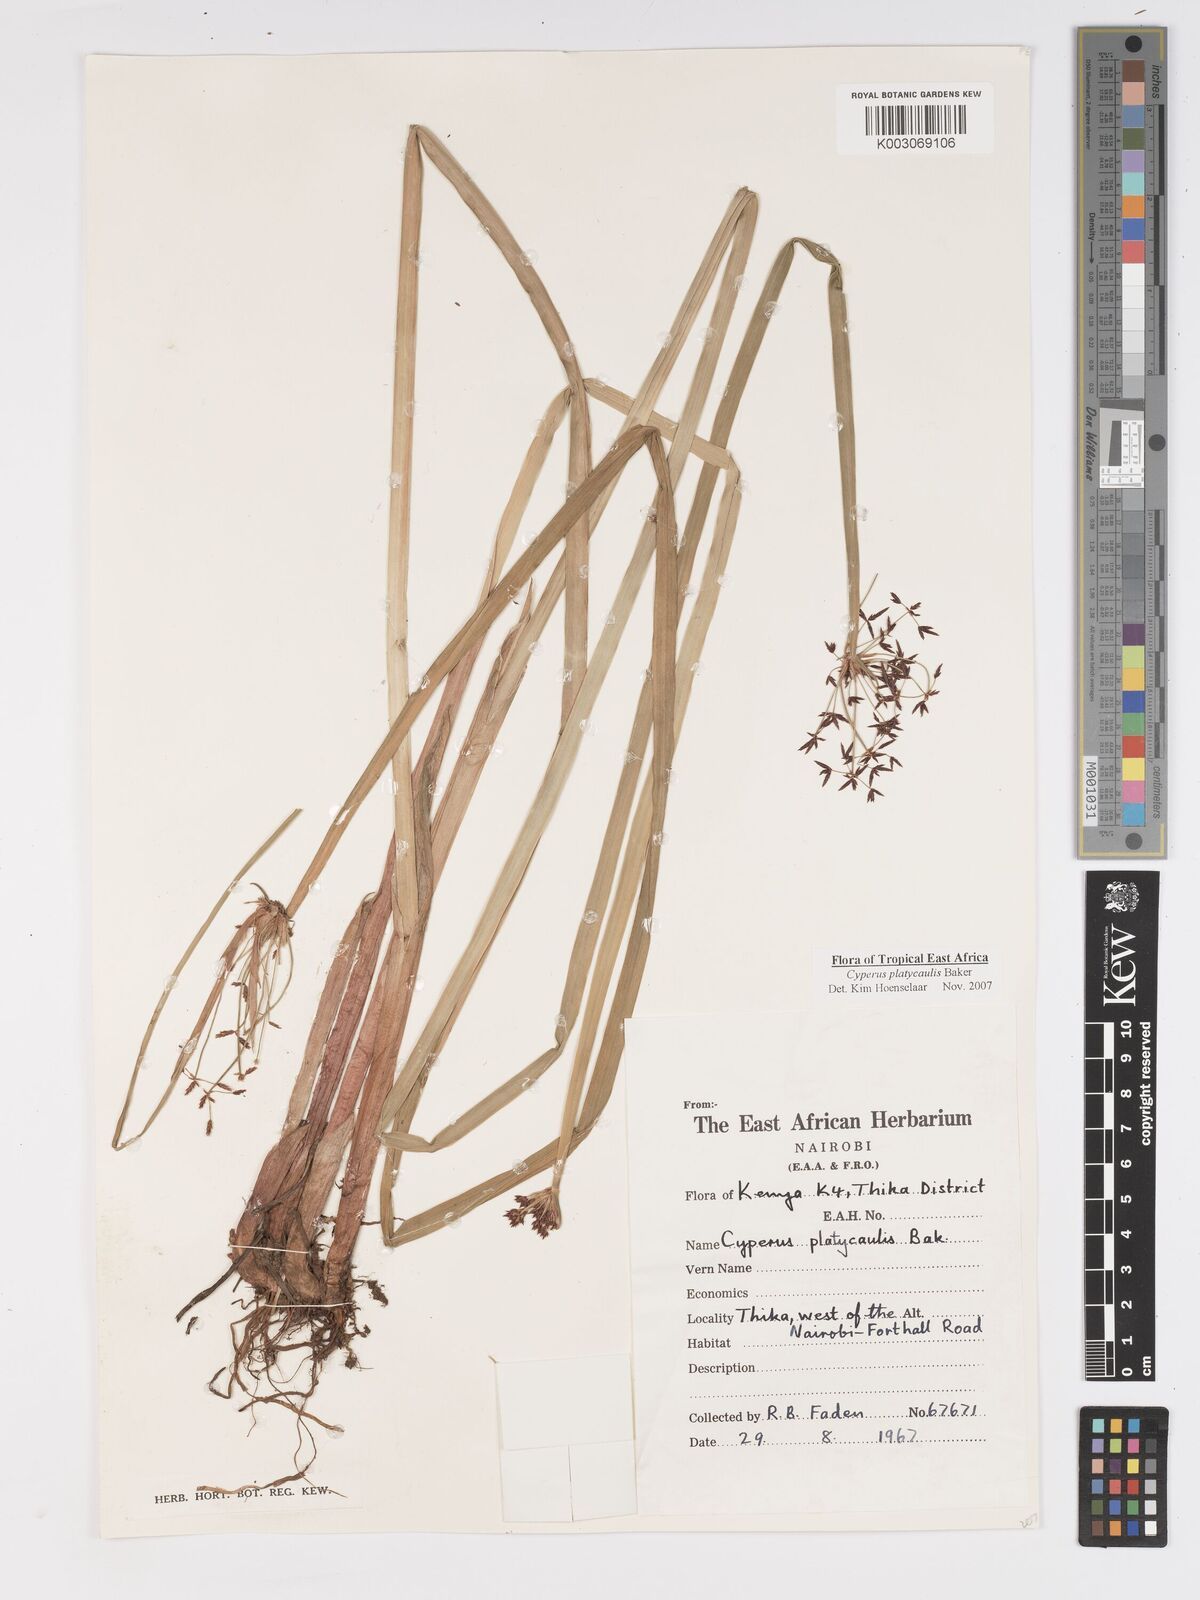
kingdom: Plantae
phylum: Tracheophyta
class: Liliopsida
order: Poales
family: Cyperaceae
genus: Cyperus
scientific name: Cyperus platycaulis
